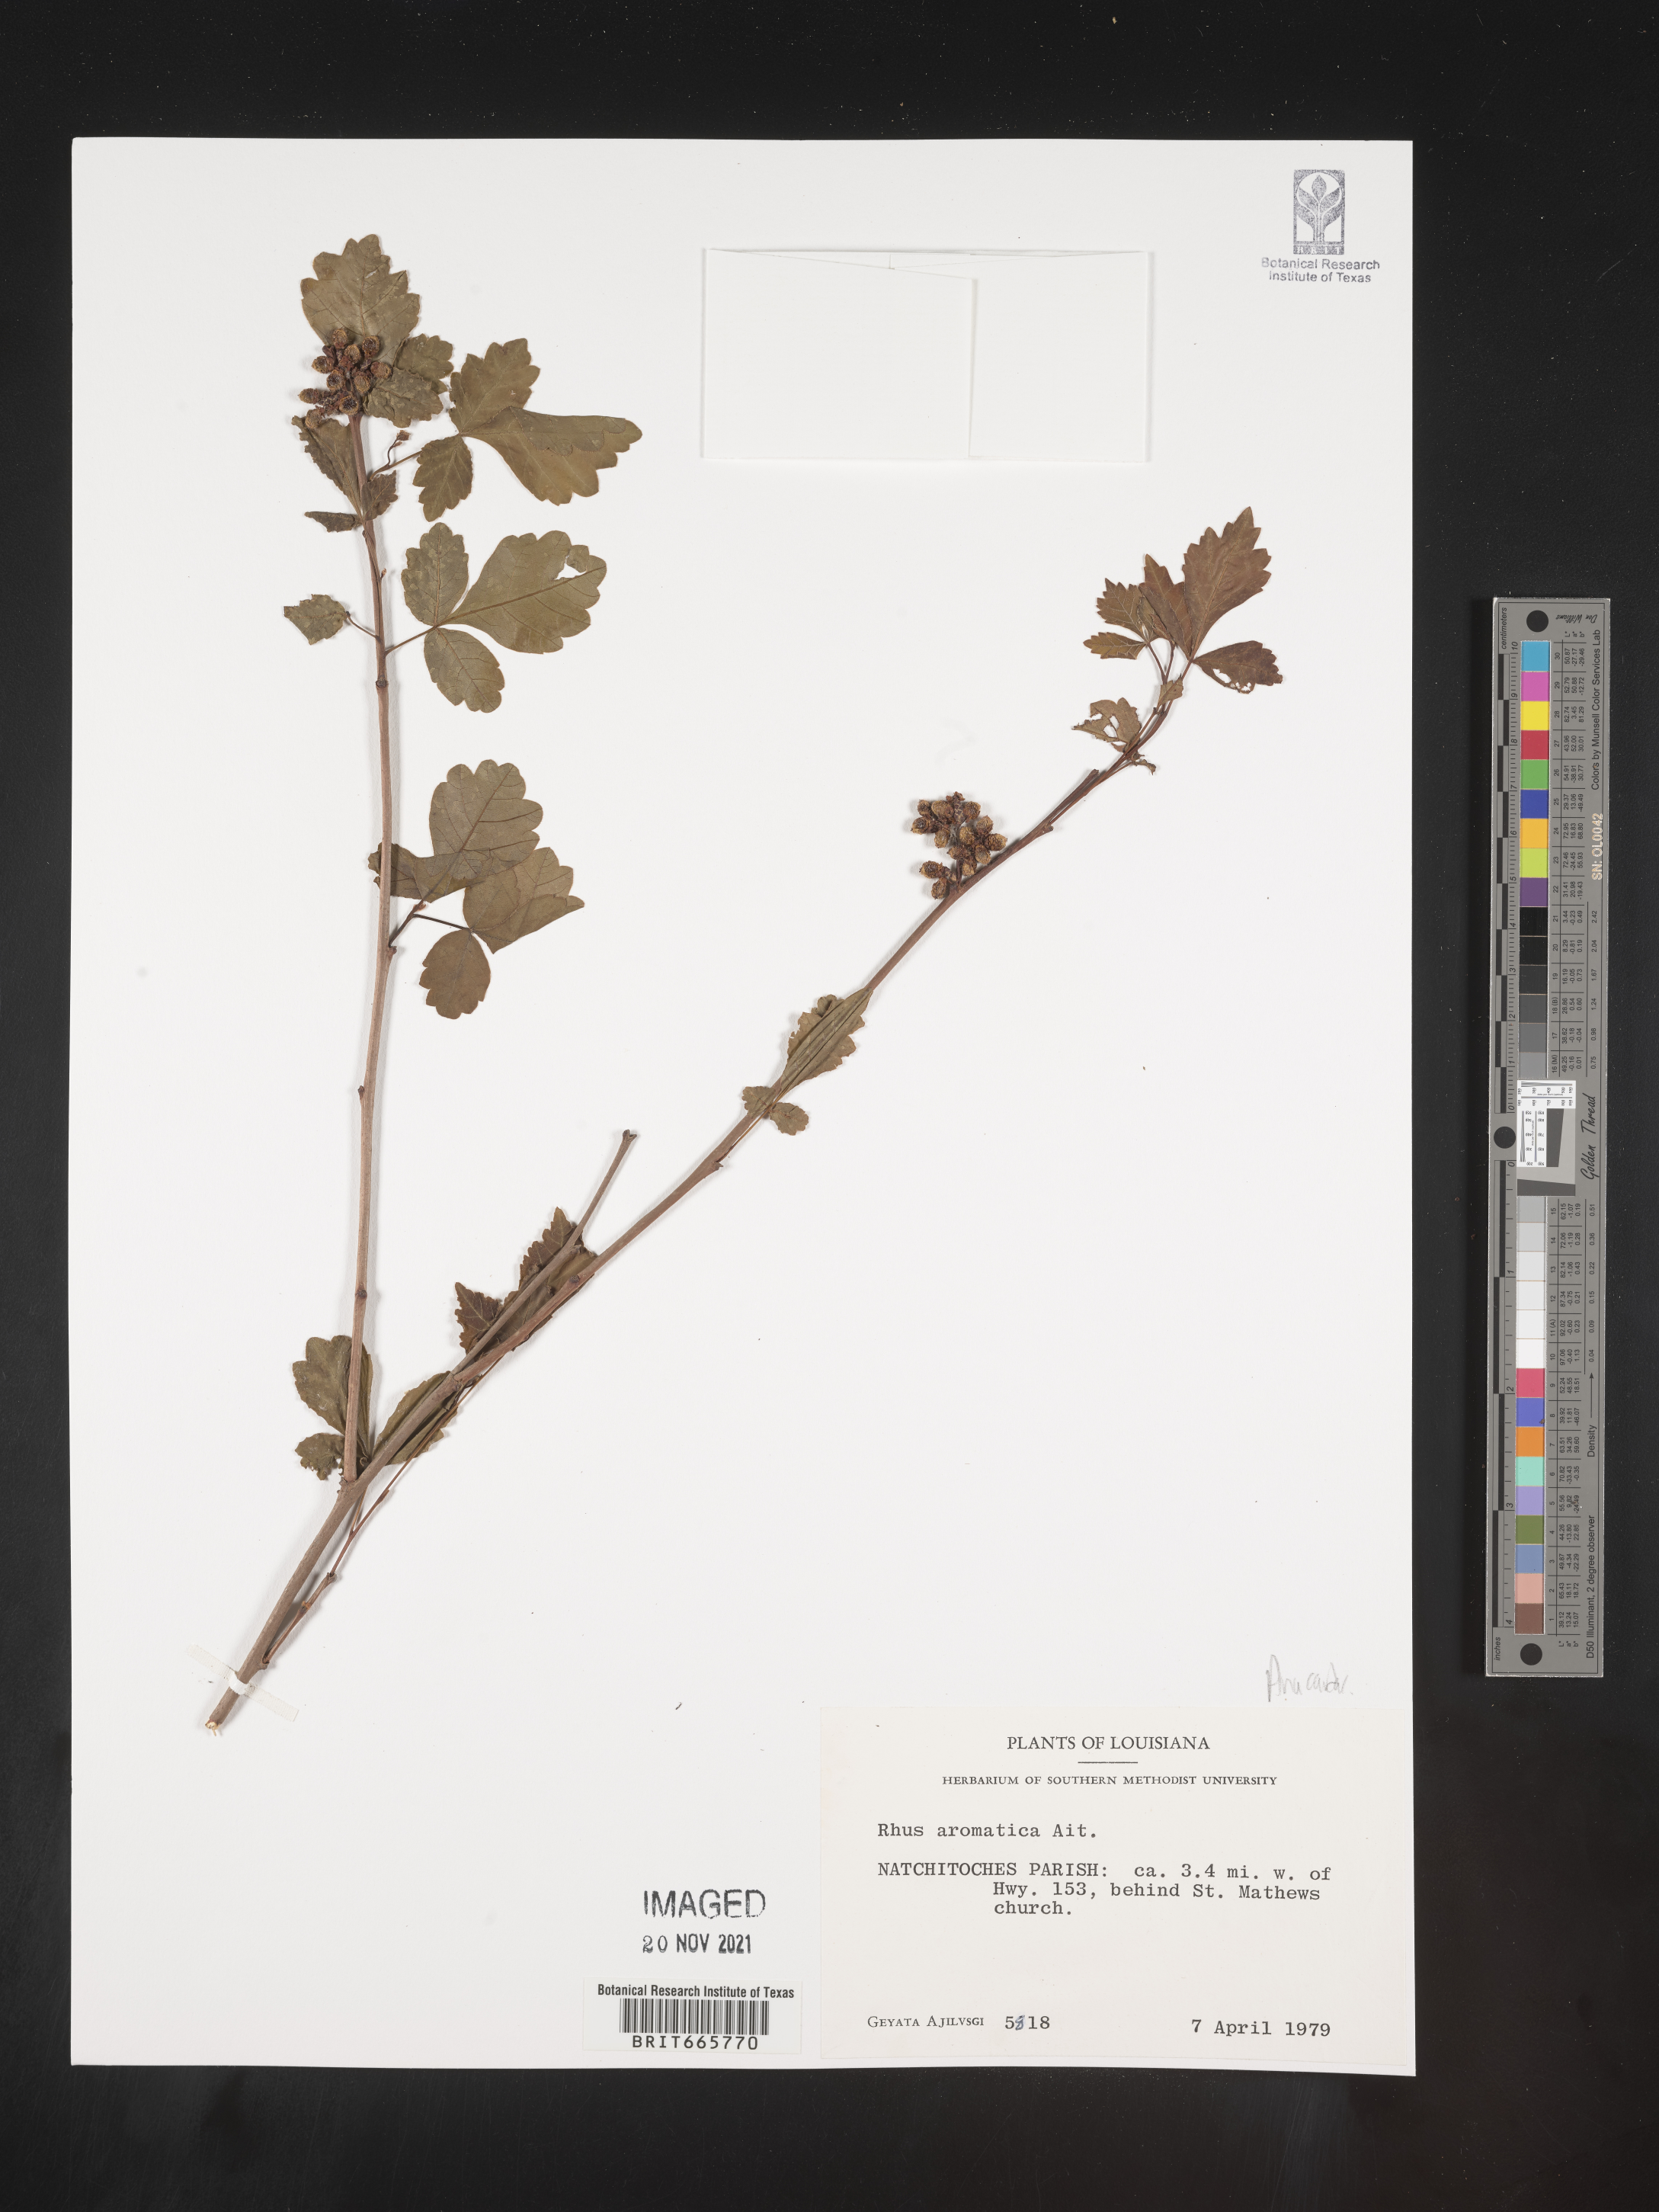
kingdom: Plantae
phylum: Tracheophyta
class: Magnoliopsida
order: Sapindales
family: Anacardiaceae
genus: Rhus
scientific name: Rhus aromatica
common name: Aromatic sumac
